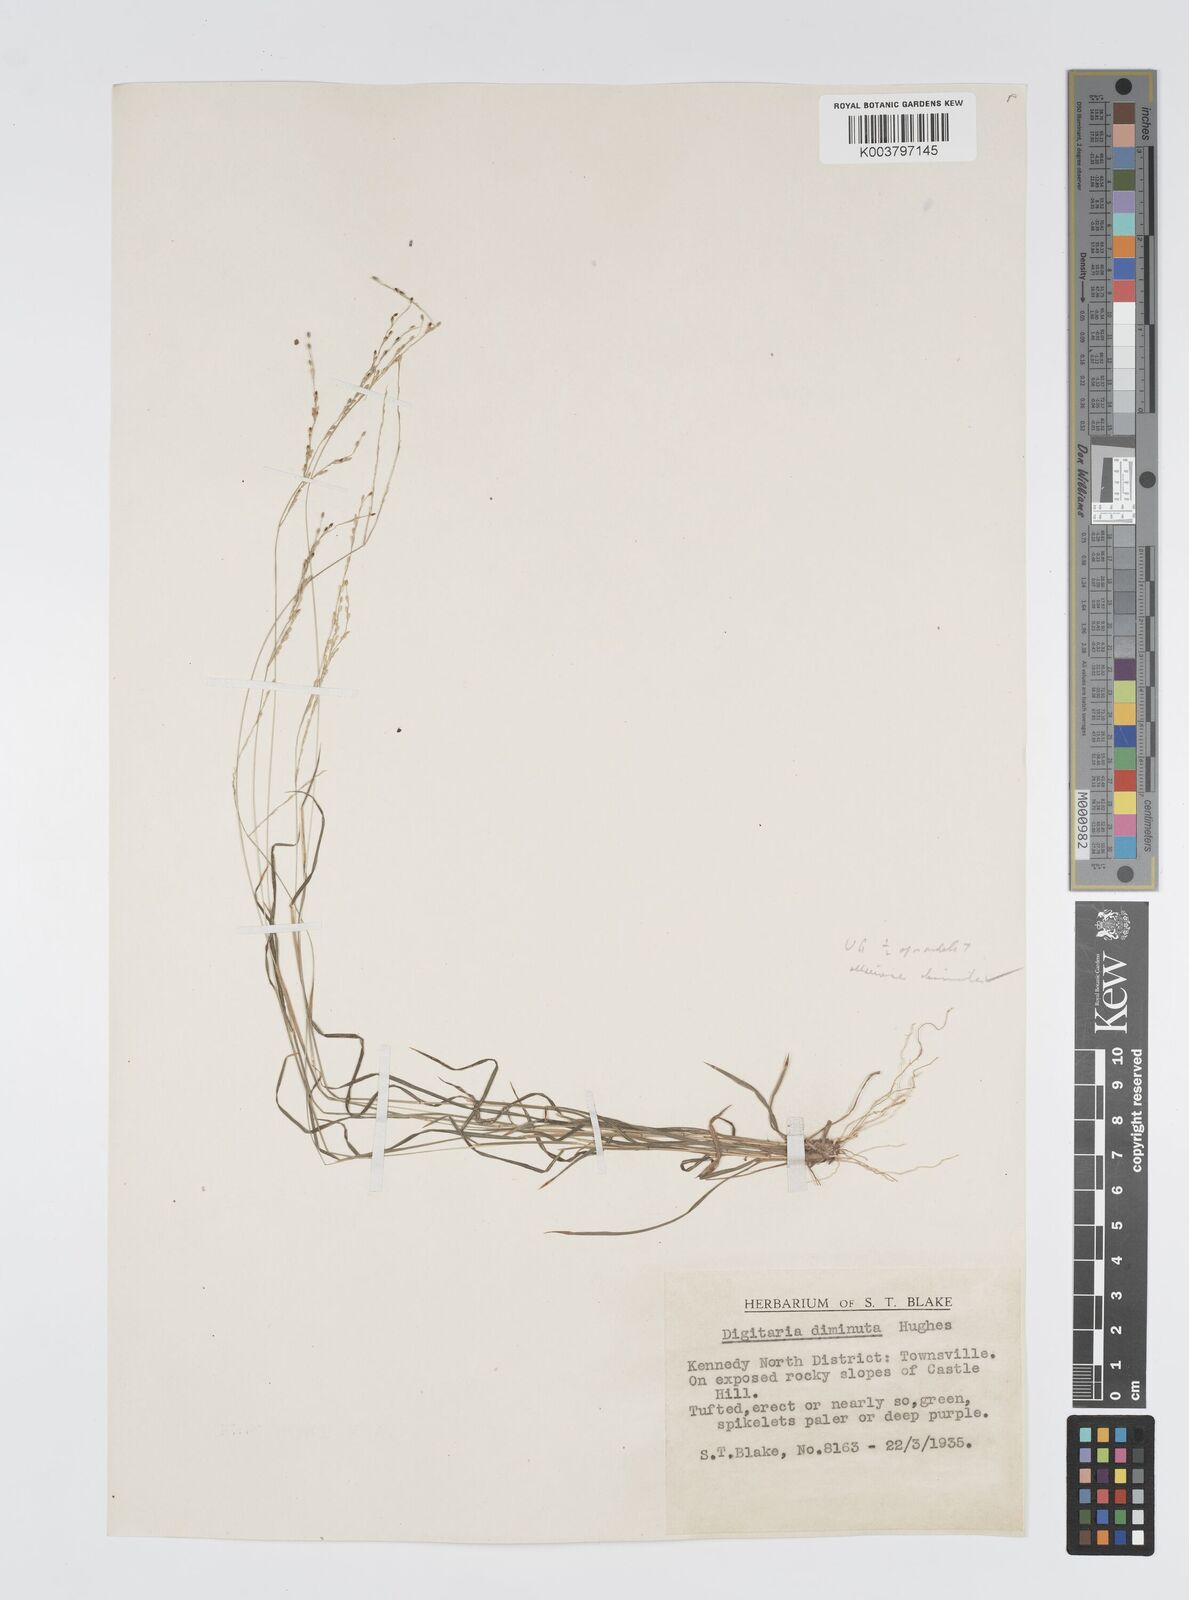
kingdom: Plantae
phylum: Tracheophyta
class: Liliopsida
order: Poales
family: Poaceae
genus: Digitaria
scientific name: Digitaria spec
